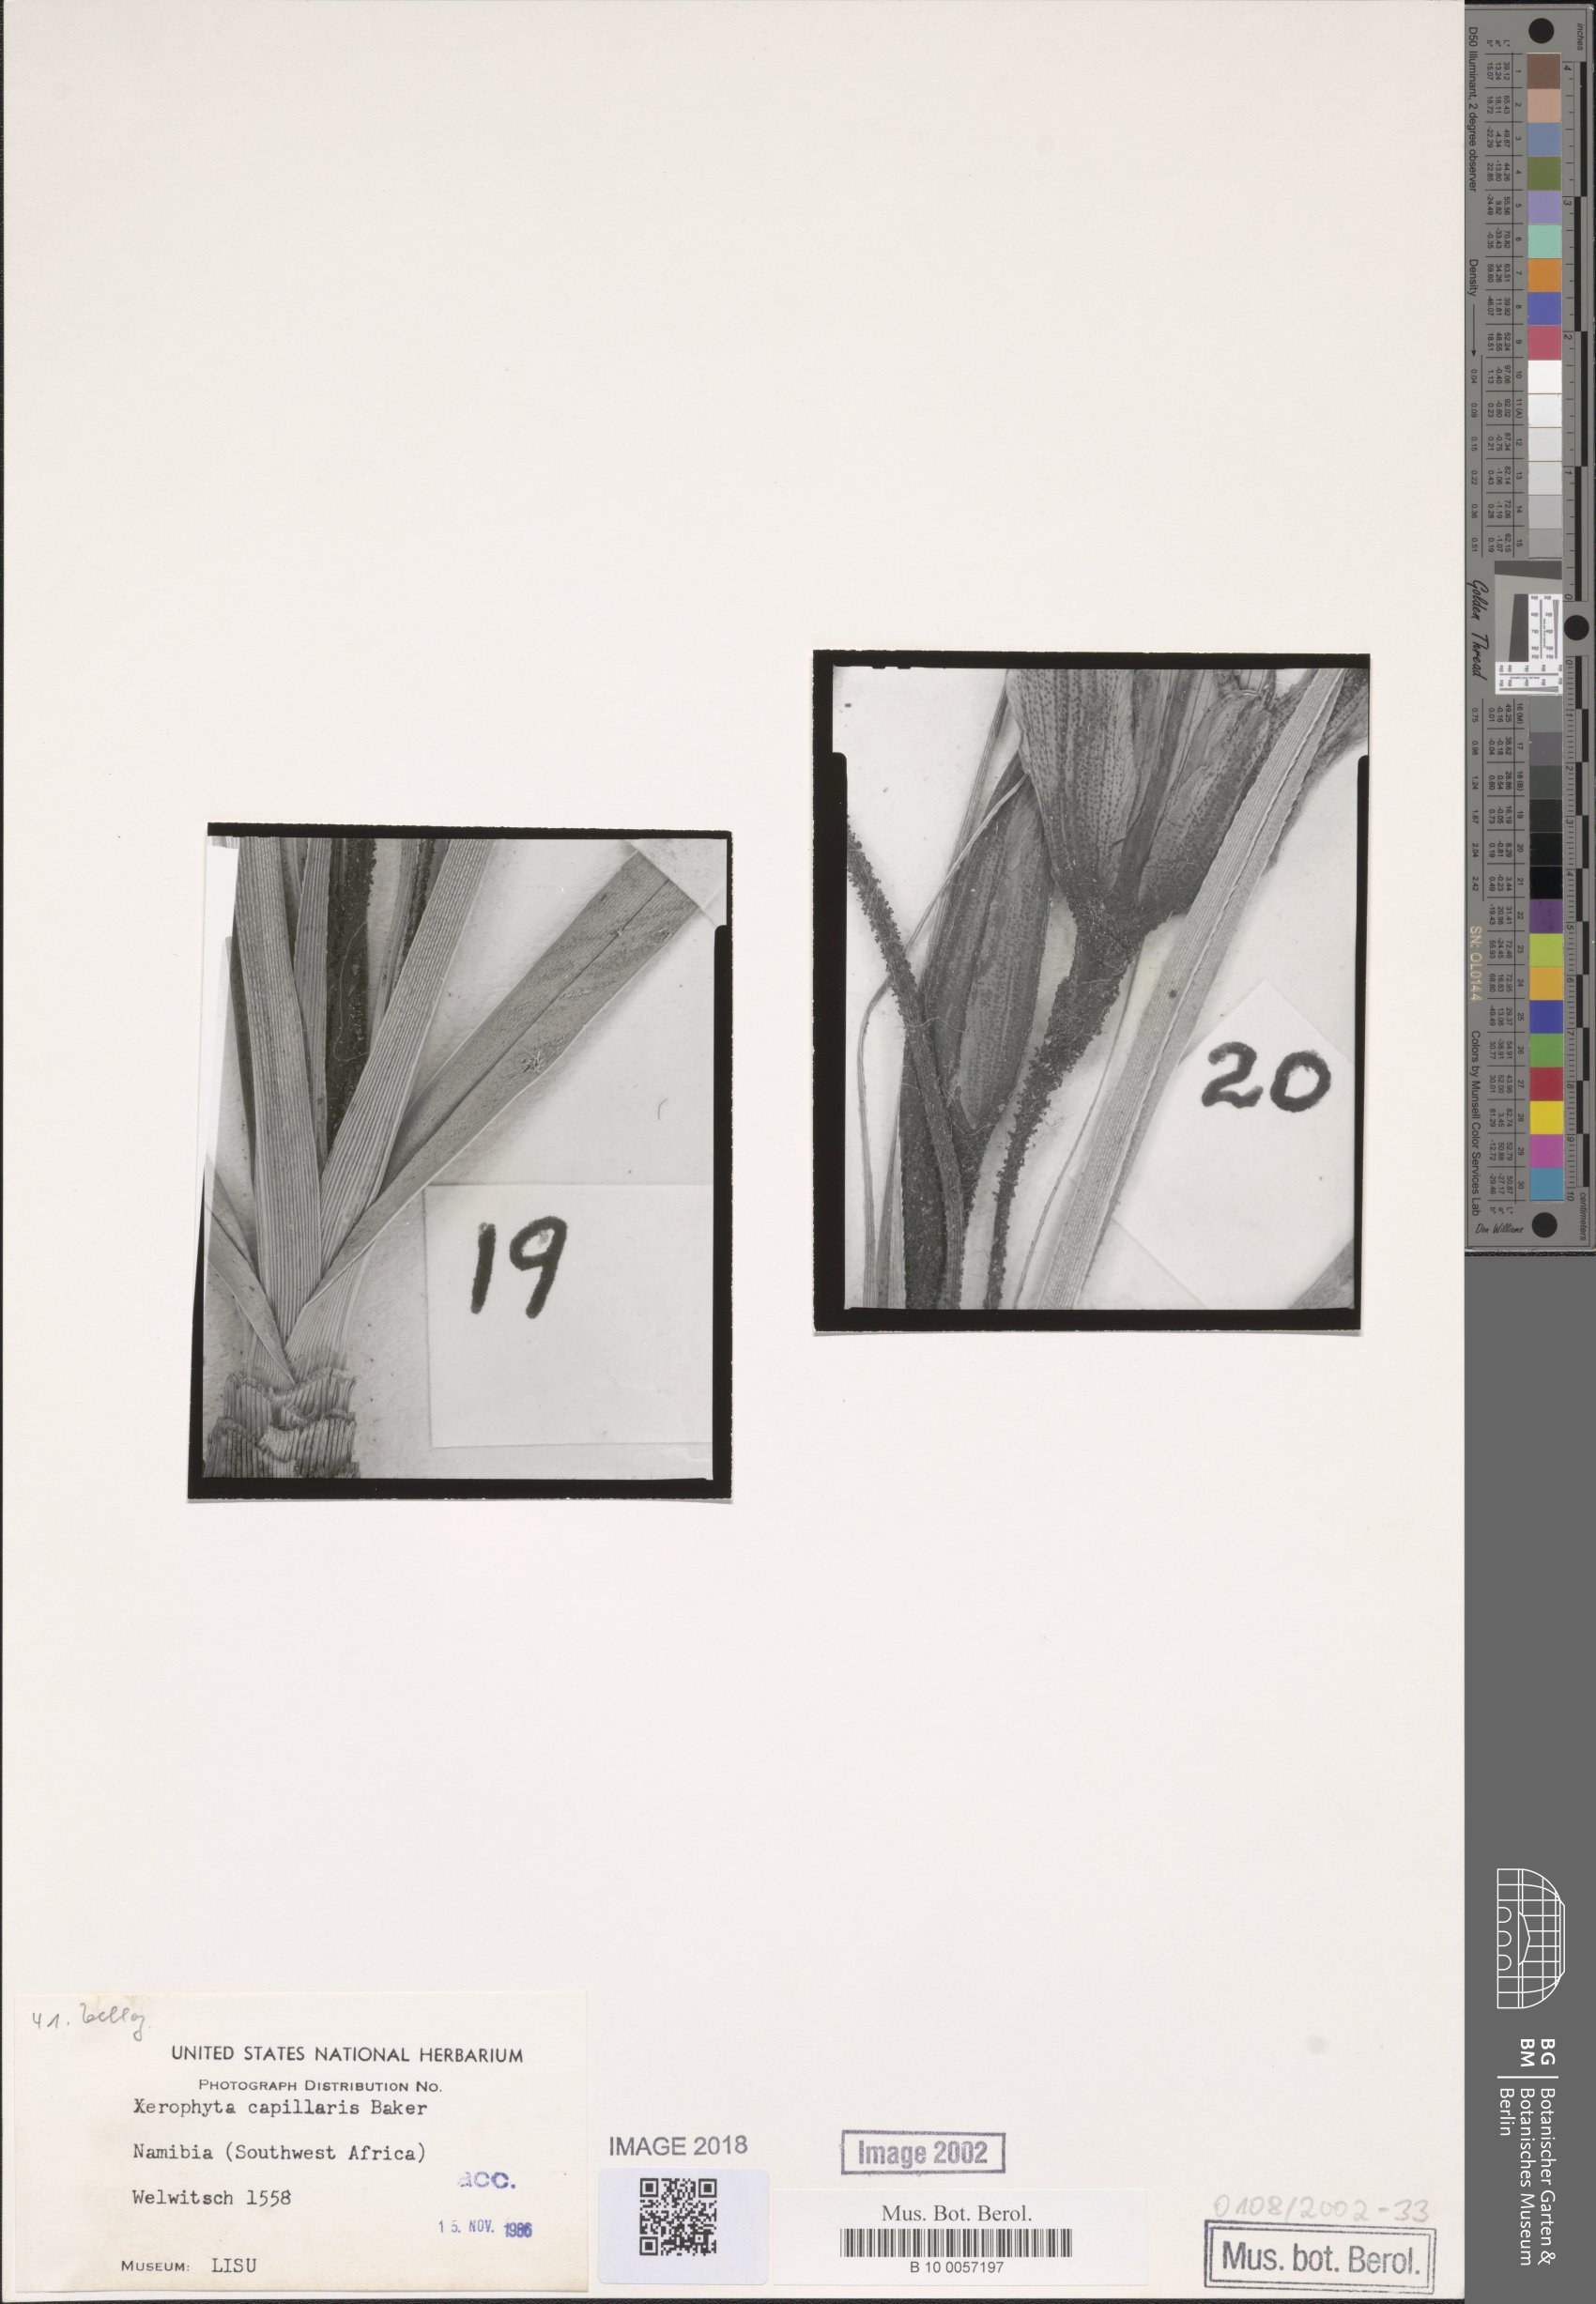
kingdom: Plantae
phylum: Tracheophyta
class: Liliopsida
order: Pandanales
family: Velloziaceae
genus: Xerophyta
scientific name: Xerophyta capillaris
